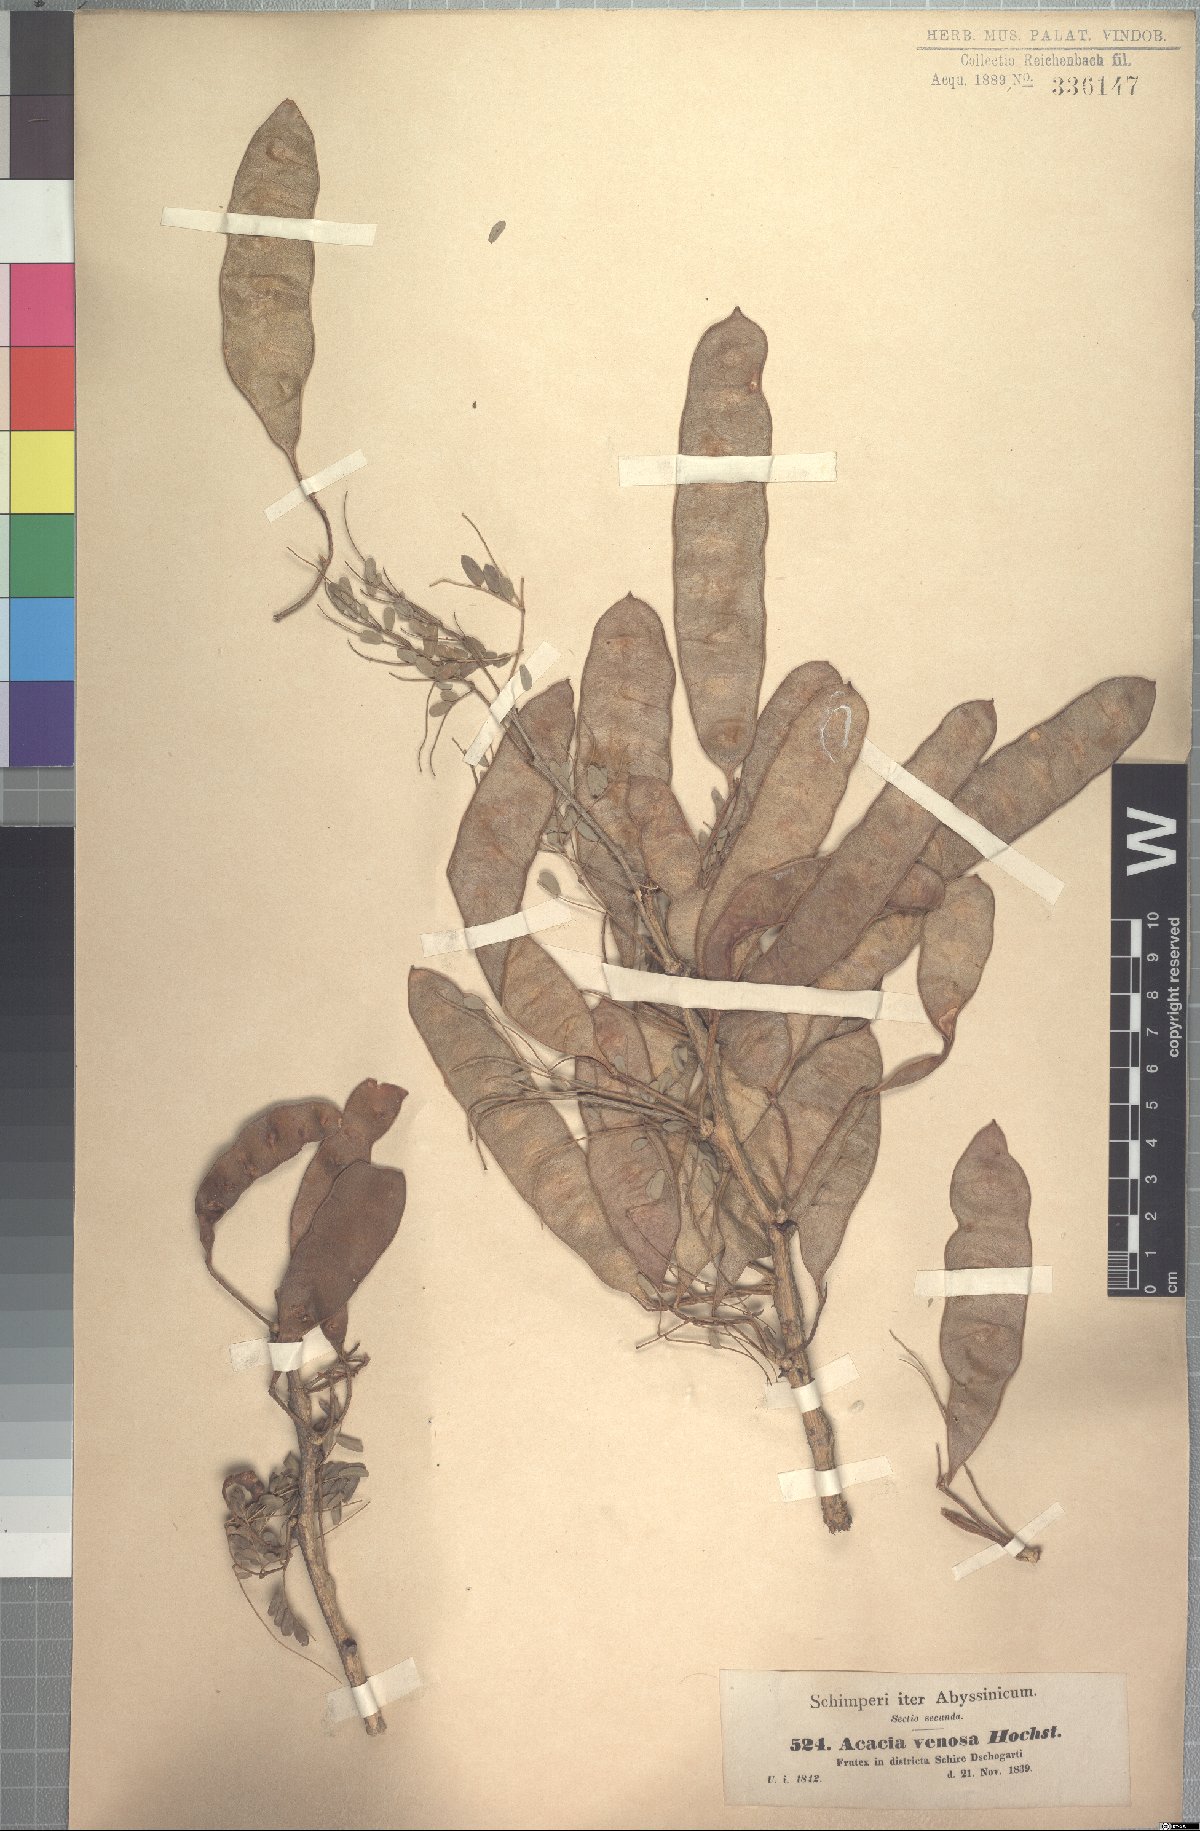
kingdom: Plantae
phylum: Tracheophyta
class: Magnoliopsida
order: Fabales
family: Fabaceae
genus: Senegalia
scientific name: Senegalia venosa
